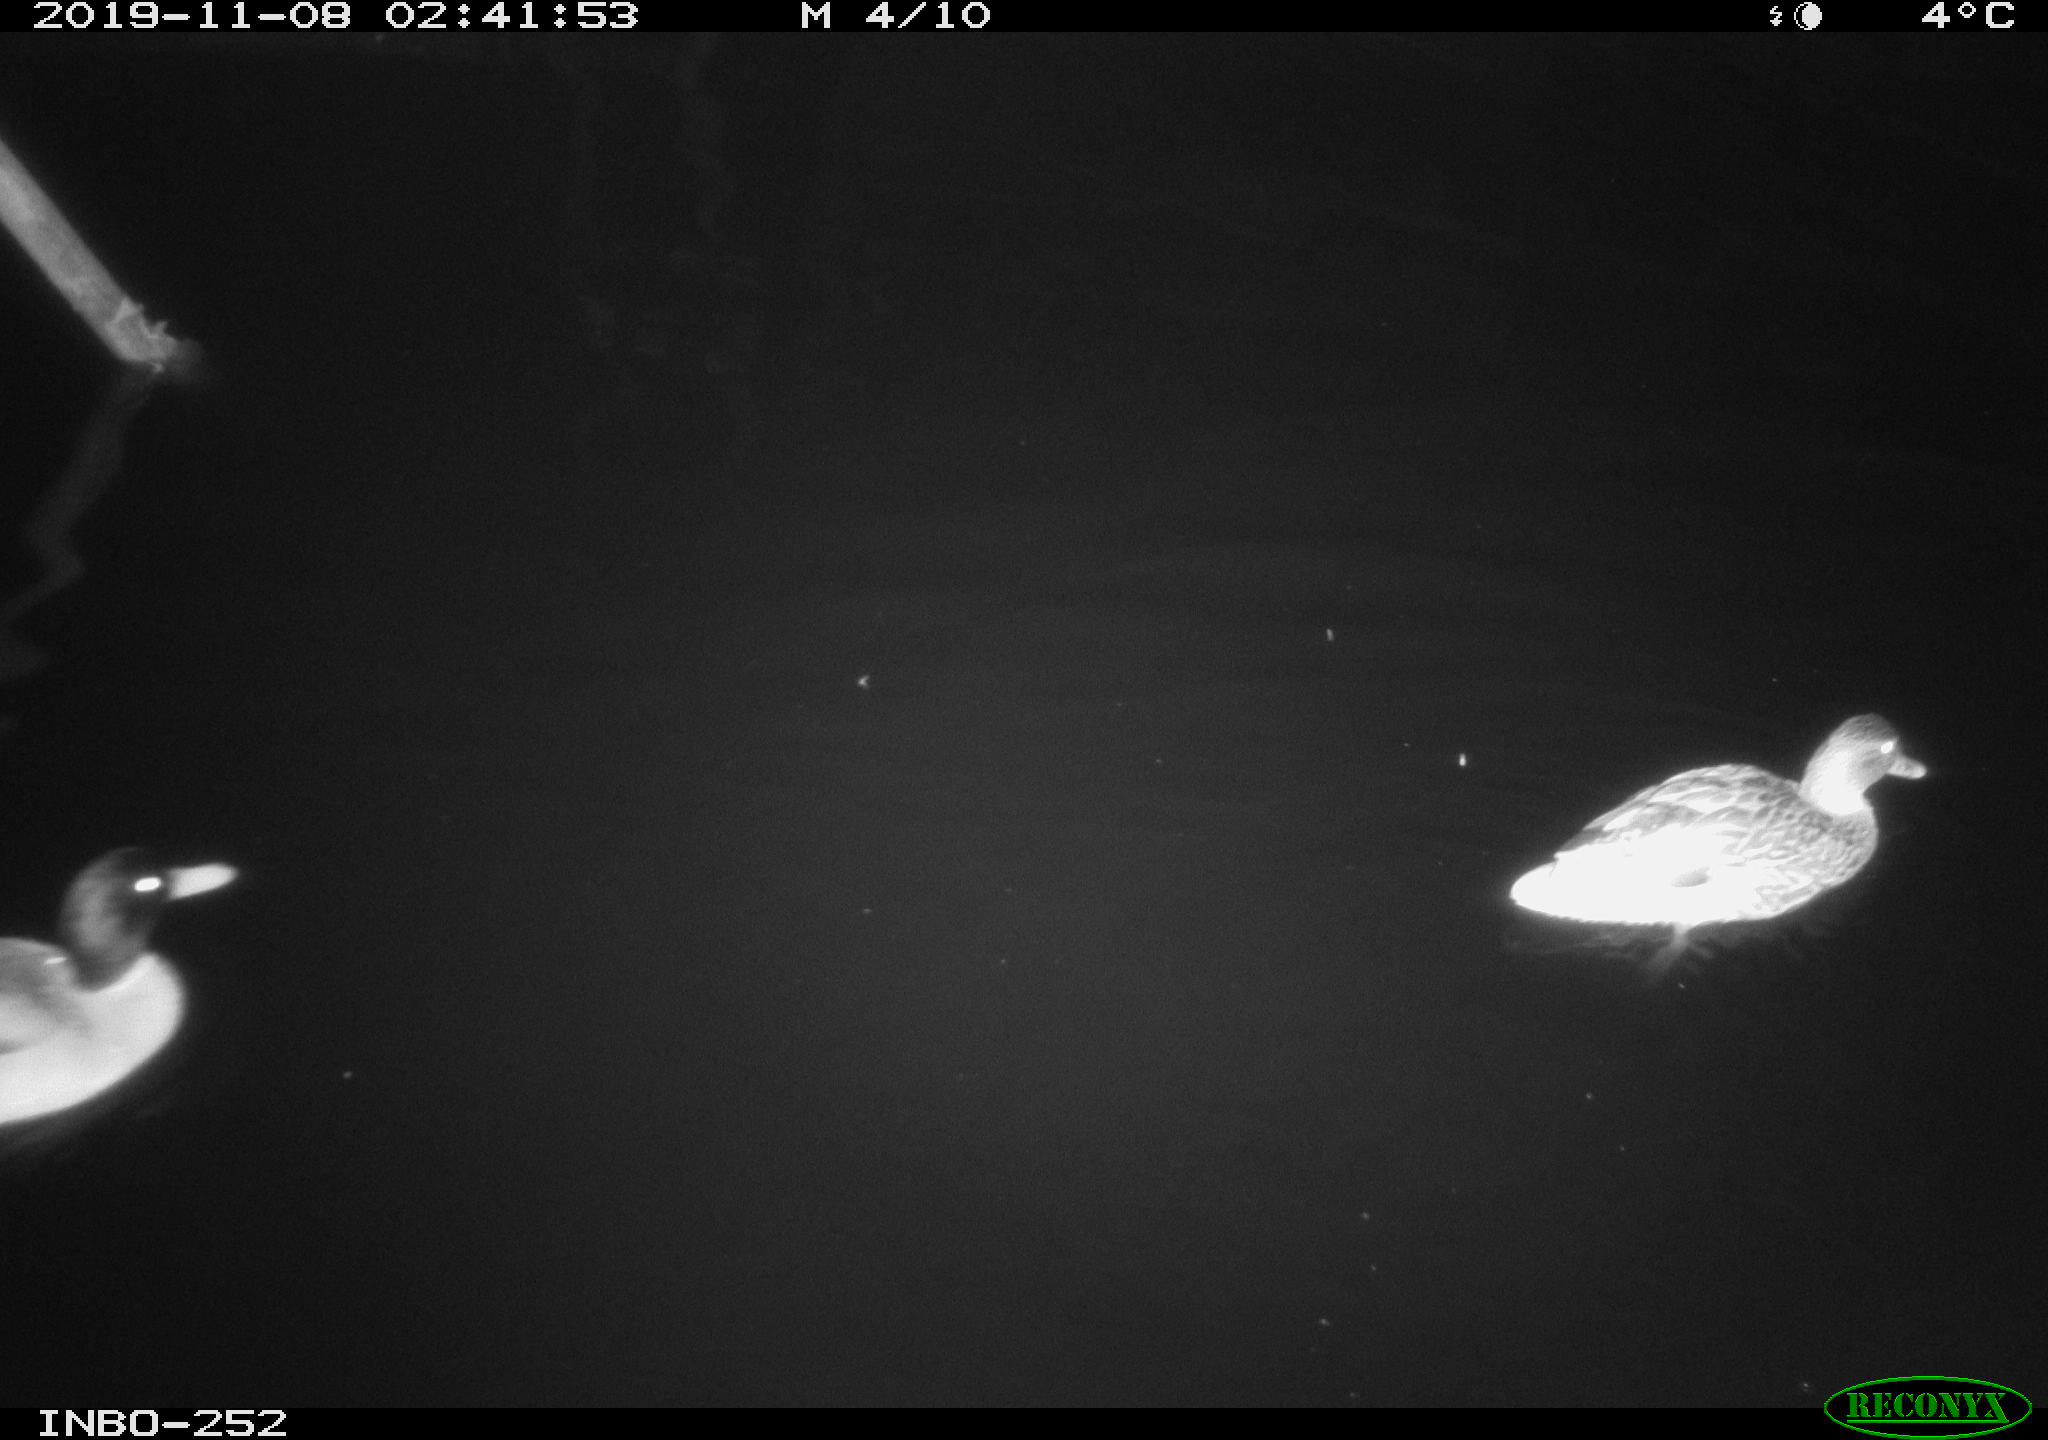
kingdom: Animalia
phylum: Chordata
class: Aves
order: Anseriformes
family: Anatidae
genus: Anas
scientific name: Anas platyrhynchos
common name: Mallard
